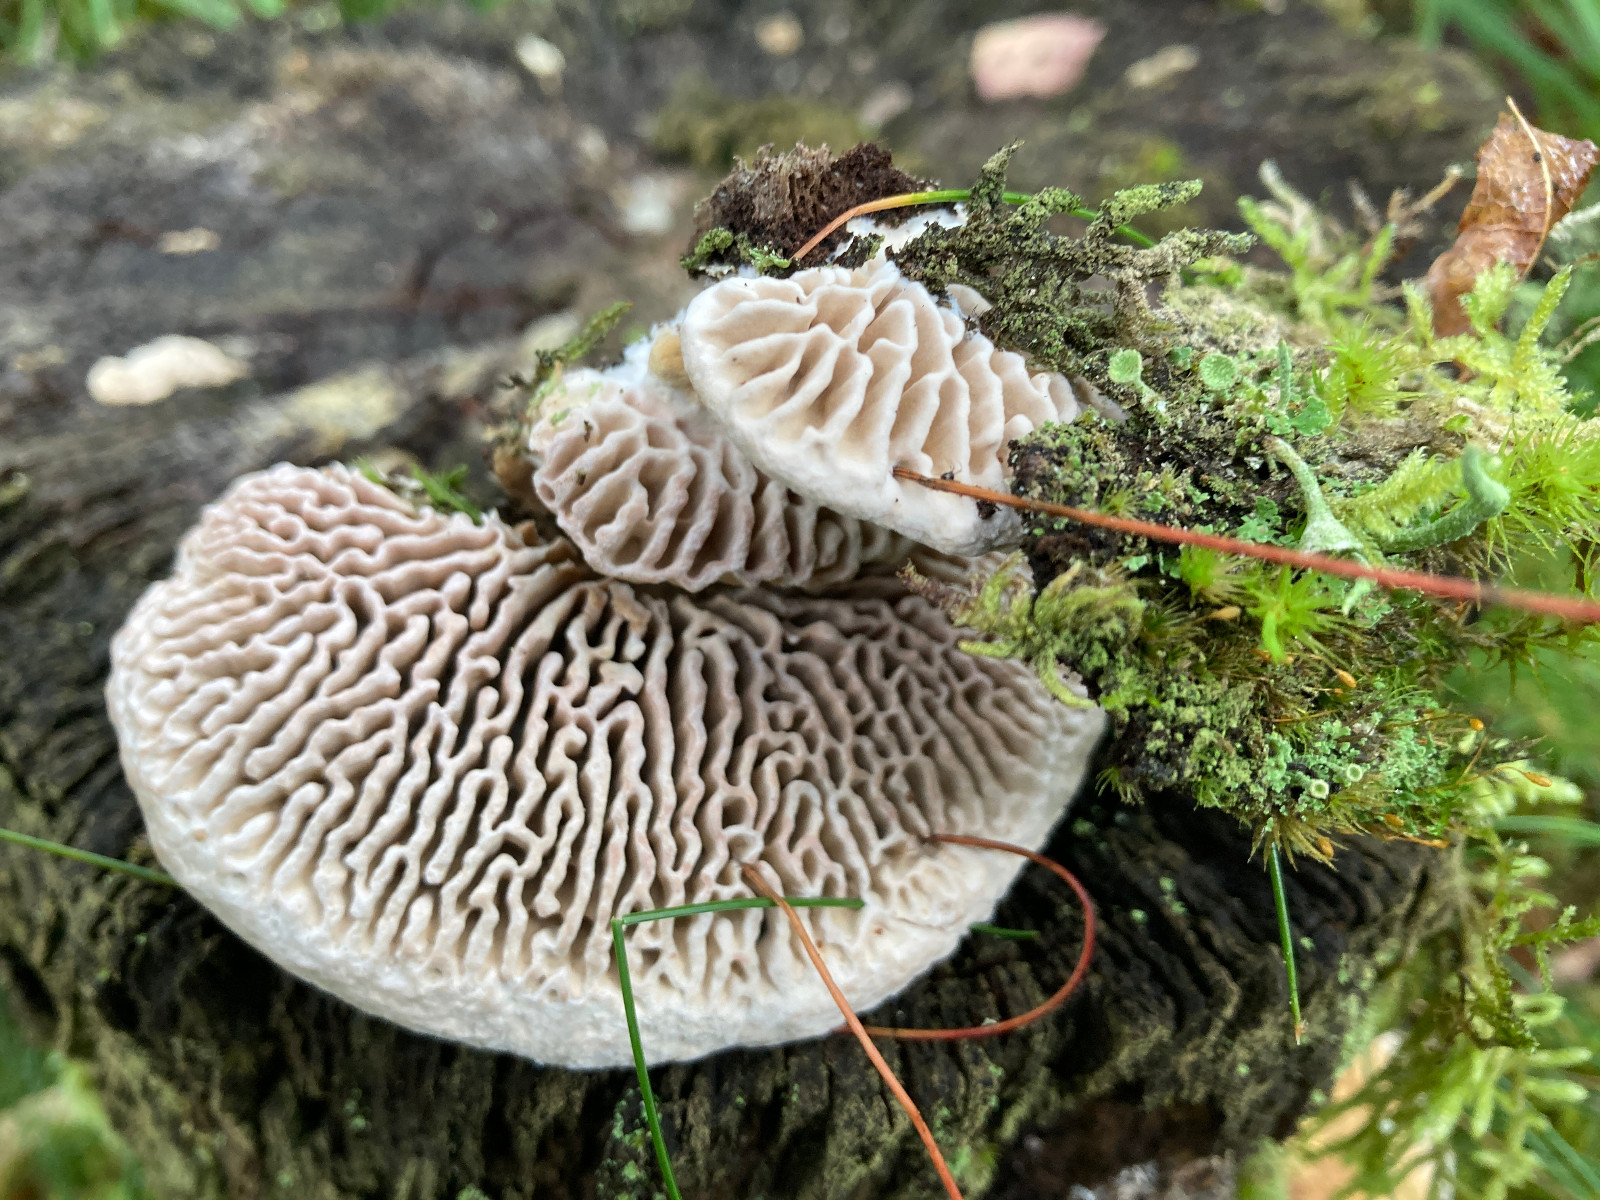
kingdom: Fungi
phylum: Basidiomycota
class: Agaricomycetes
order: Polyporales
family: Fomitopsidaceae
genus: Daedalea
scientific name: Daedalea quercina
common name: ege-labyrintsvamp
